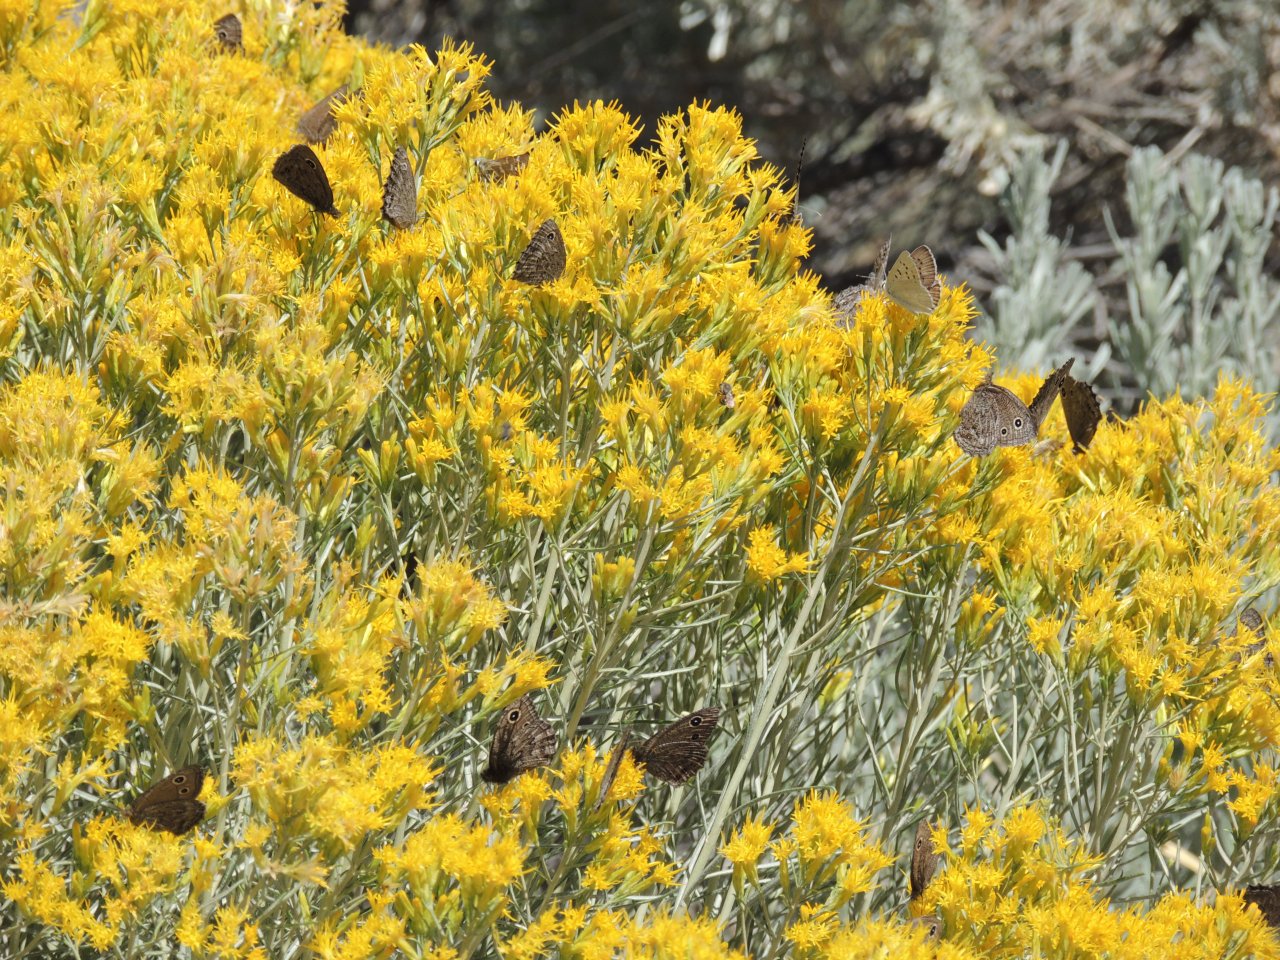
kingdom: Animalia
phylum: Arthropoda
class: Insecta
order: Lepidoptera
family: Nymphalidae
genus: Cercyonis
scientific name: Cercyonis oetus
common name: Small Wood-Nymph
